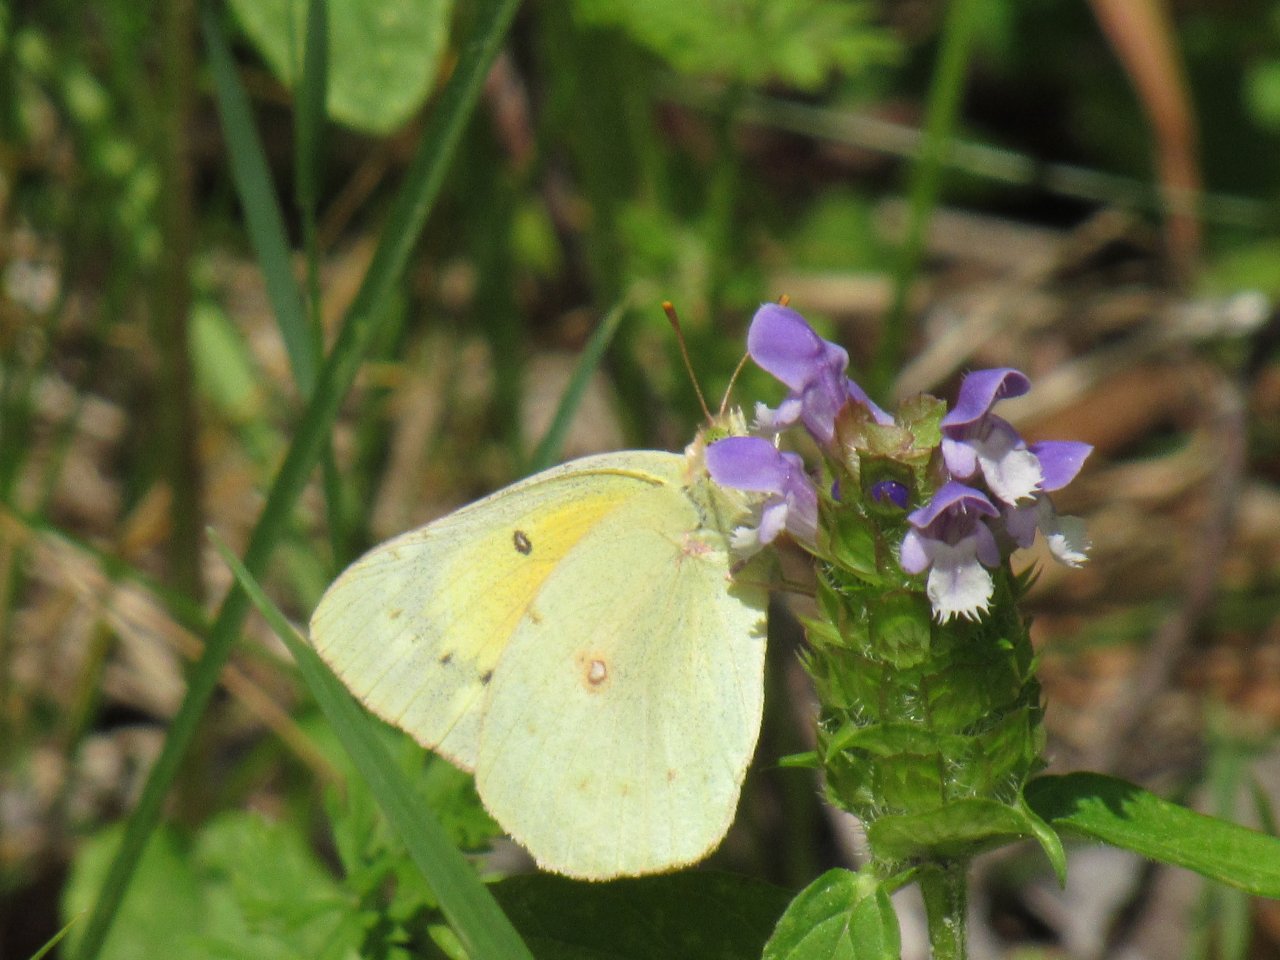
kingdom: Animalia
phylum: Arthropoda
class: Insecta
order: Lepidoptera
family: Pieridae
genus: Colias
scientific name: Colias eurytheme
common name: Orange Sulphur
